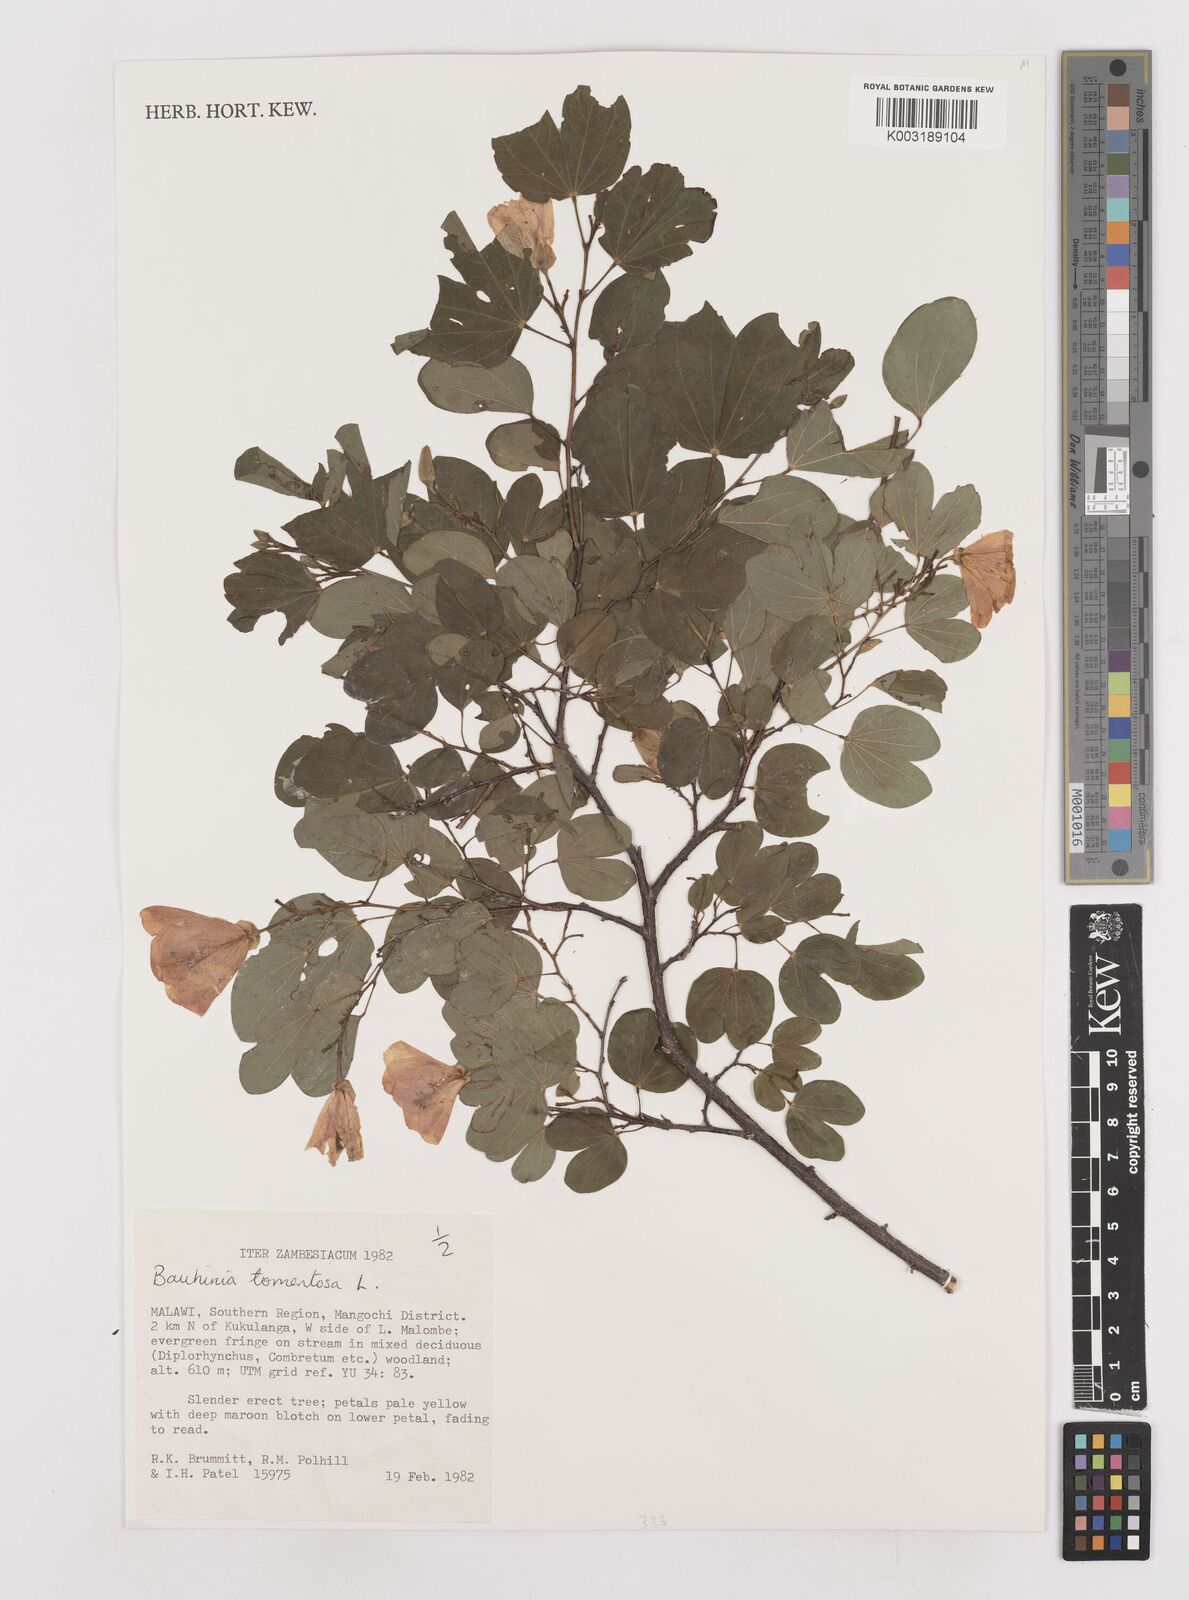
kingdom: Plantae
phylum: Tracheophyta
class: Magnoliopsida
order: Fabales
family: Fabaceae
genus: Bauhinia
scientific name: Bauhinia tomentosa
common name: Bell bauhinia
